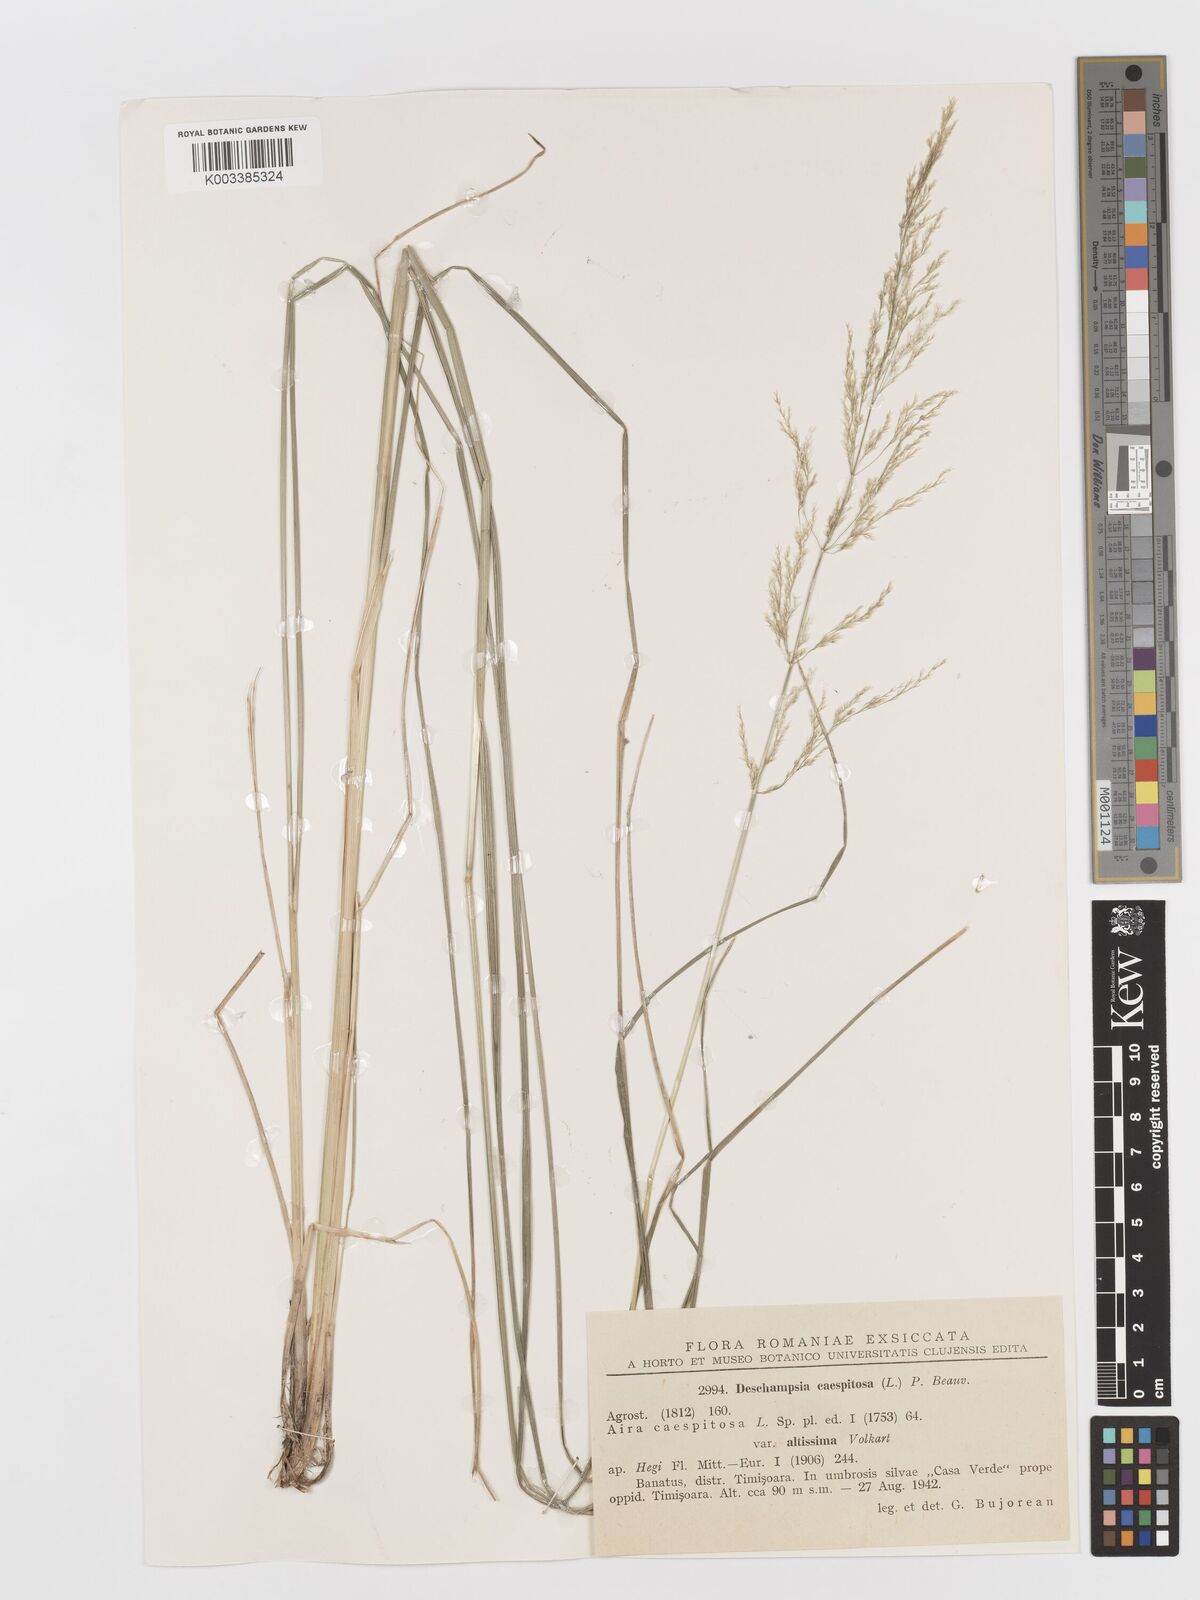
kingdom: Plantae
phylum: Tracheophyta
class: Liliopsida
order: Poales
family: Poaceae
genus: Deschampsia
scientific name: Deschampsia cespitosa
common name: Tufted hair-grass
